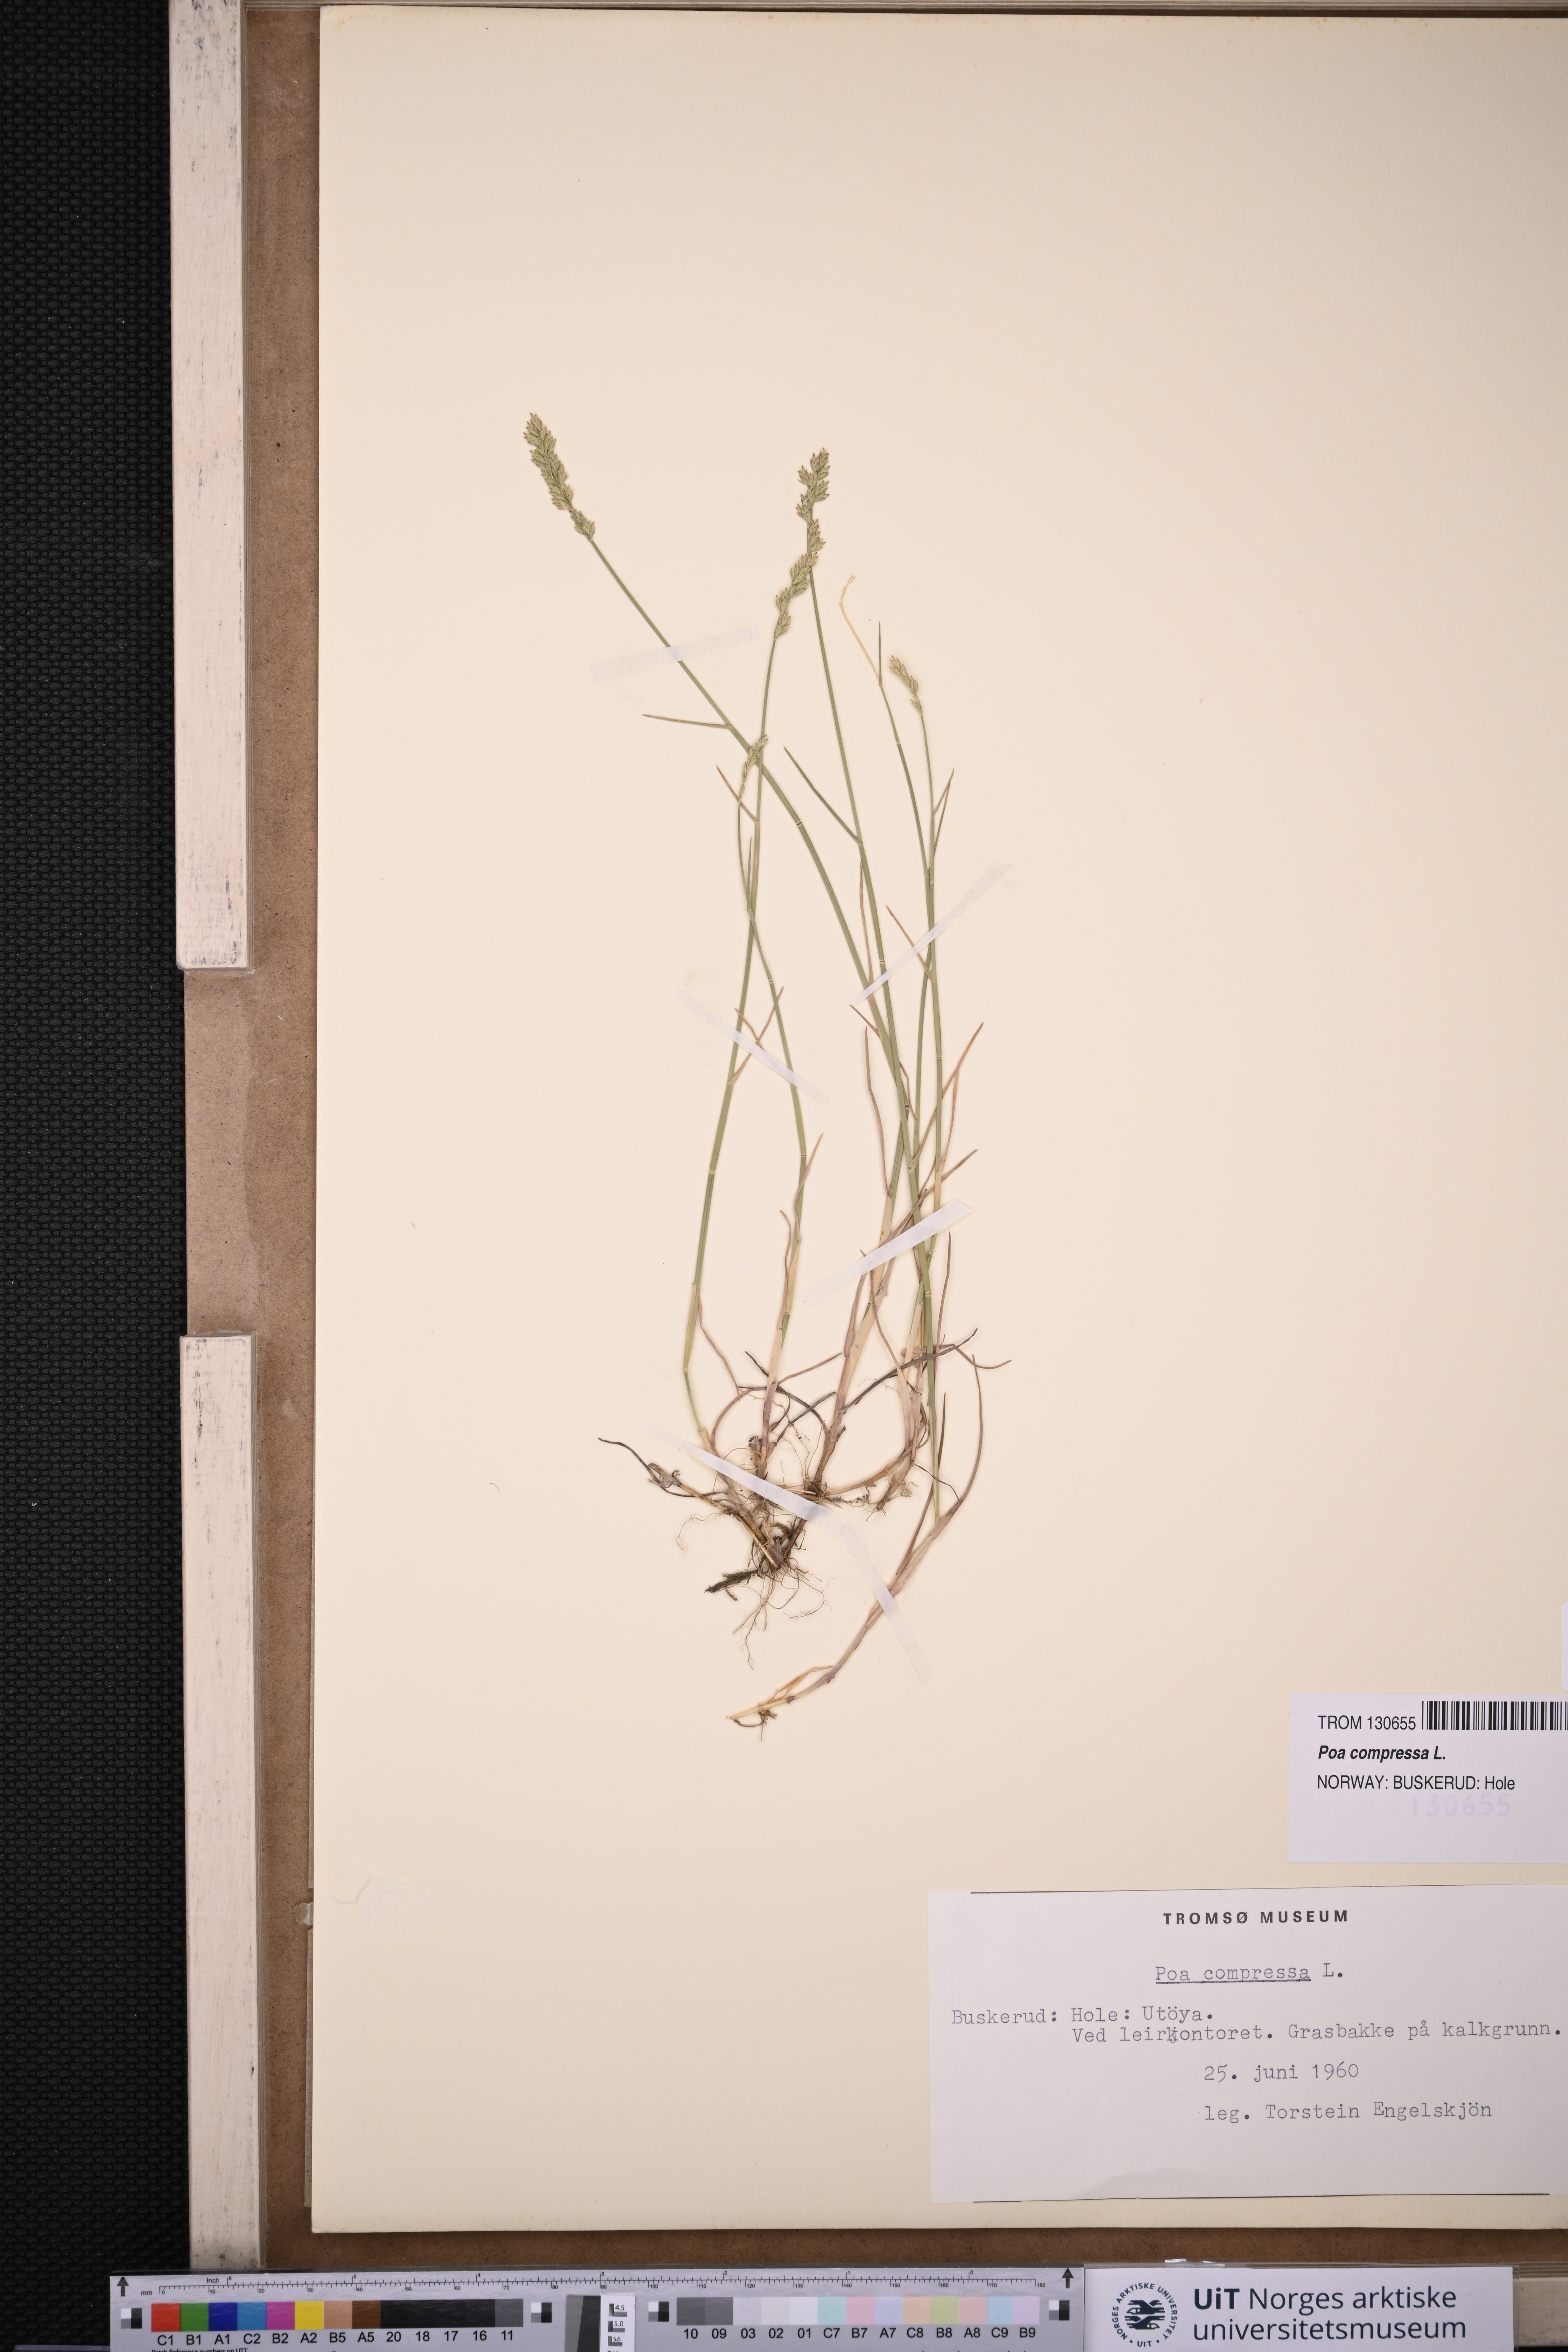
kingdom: Plantae
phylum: Tracheophyta
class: Liliopsida
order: Poales
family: Poaceae
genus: Poa
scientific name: Poa compressa
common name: Canada bluegrass
